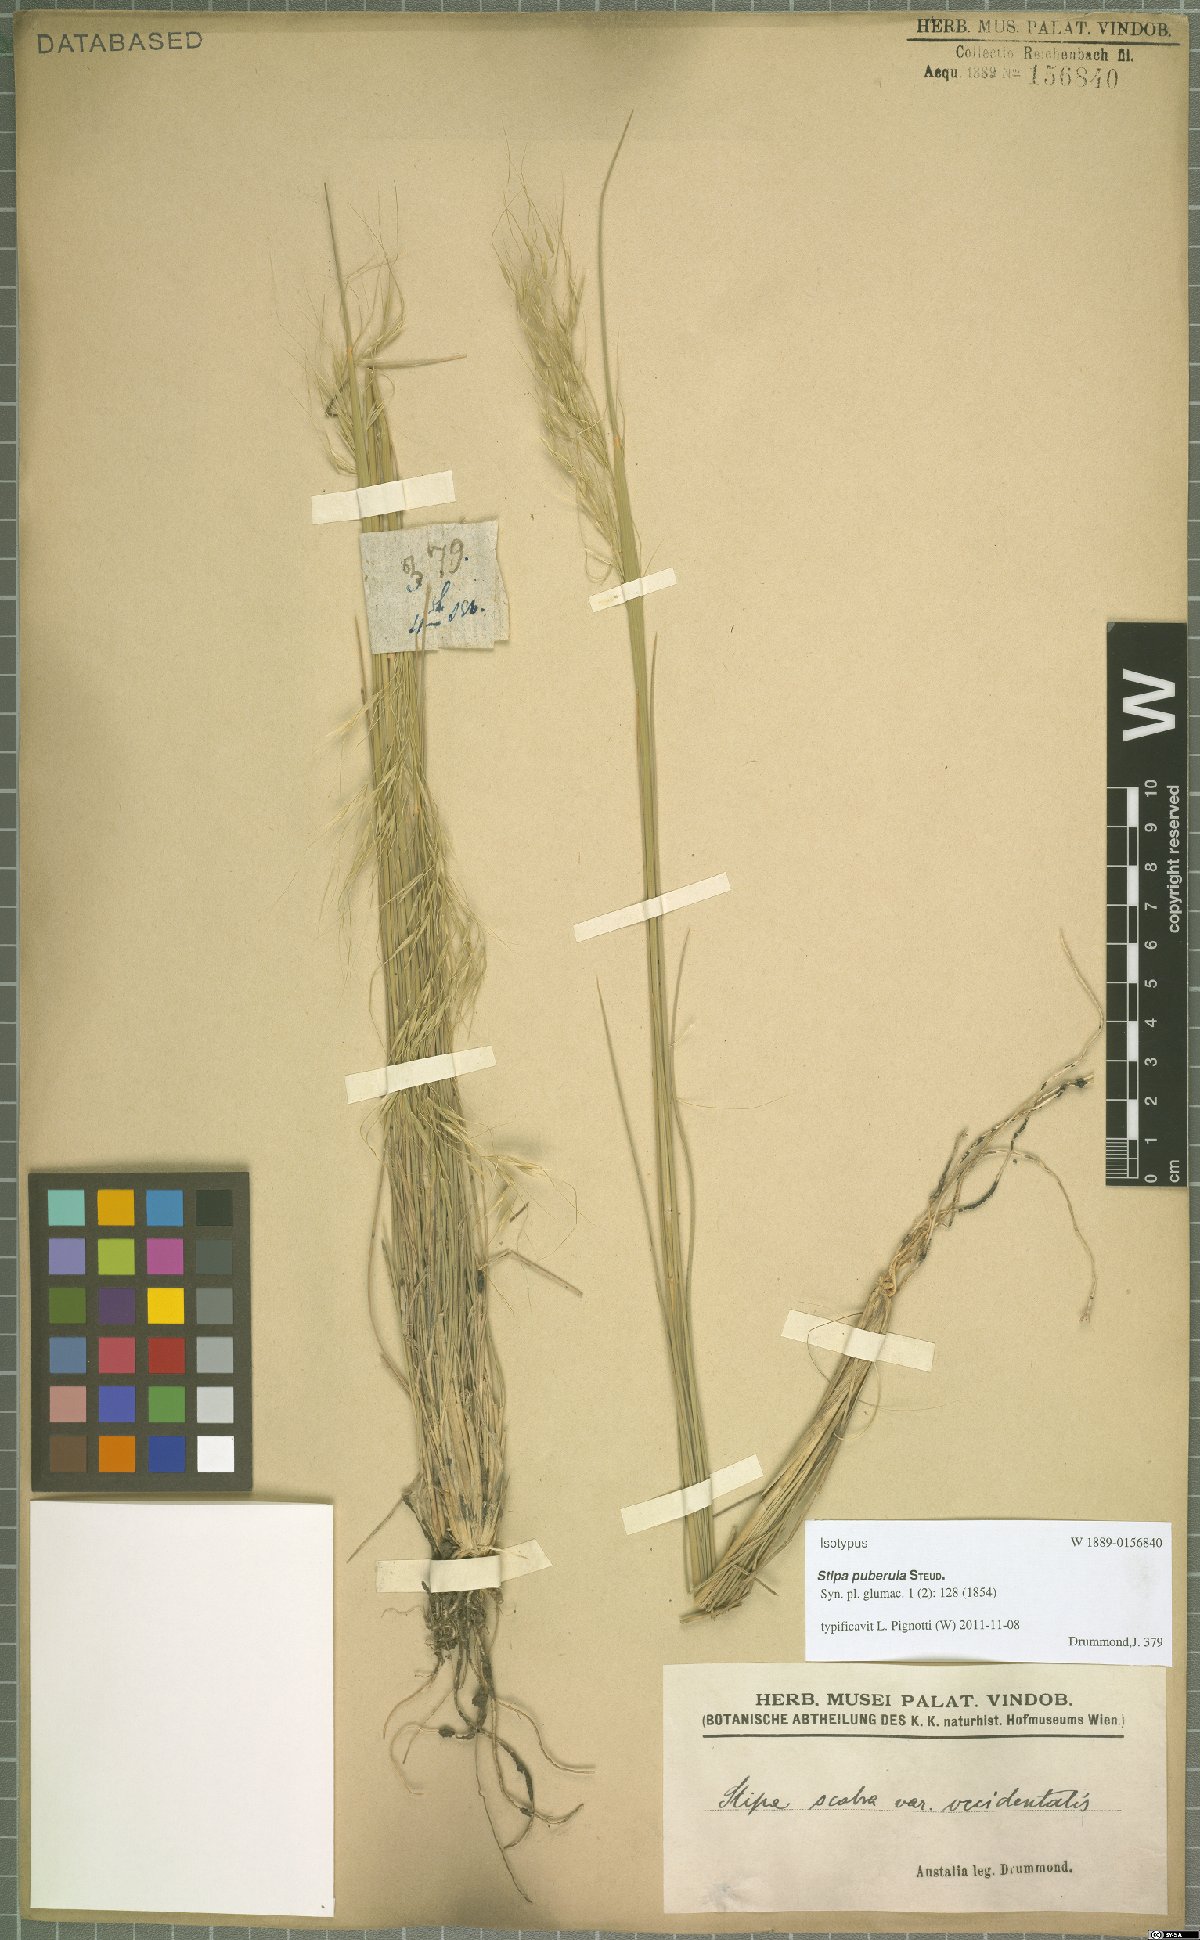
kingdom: Plantae
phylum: Tracheophyta
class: Liliopsida
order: Poales
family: Poaceae
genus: Austrostipa
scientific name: Austrostipa puberula
